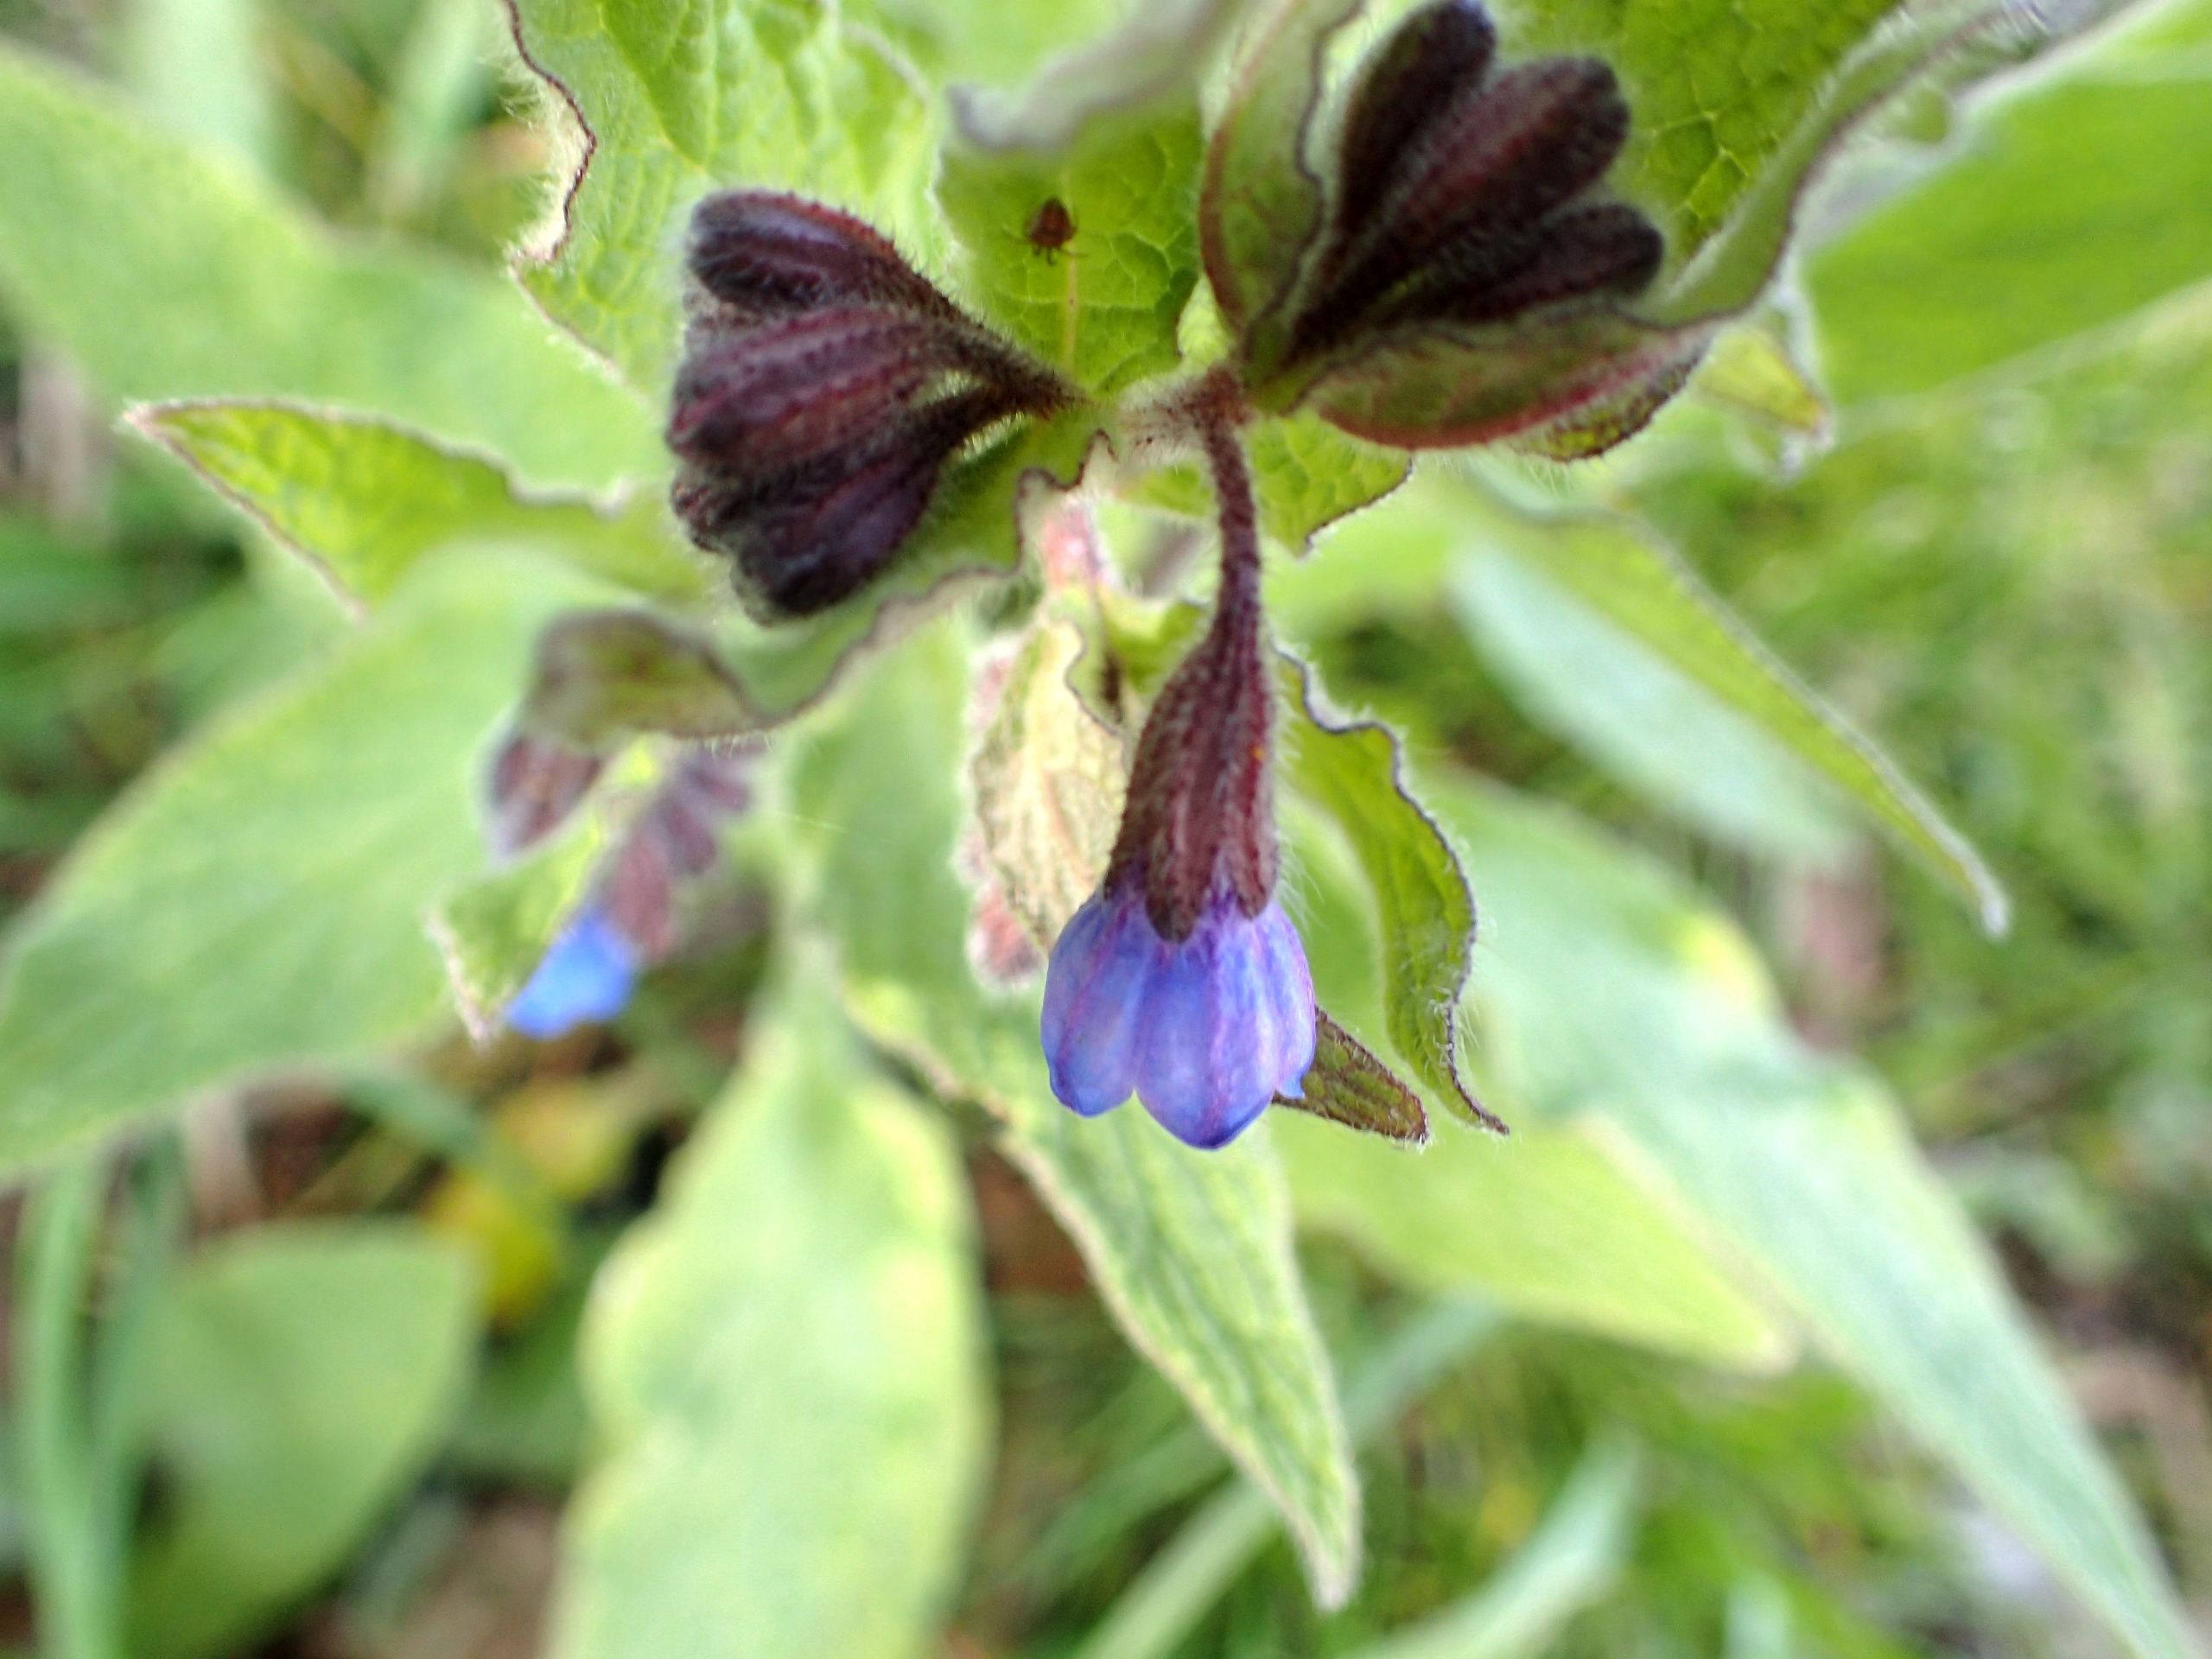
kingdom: Plantae
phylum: Tracheophyta
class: Magnoliopsida
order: Boraginales
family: Boraginaceae
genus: Symphytum
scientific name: Symphytum caucasicum
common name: Kaukasisk kulsukker
